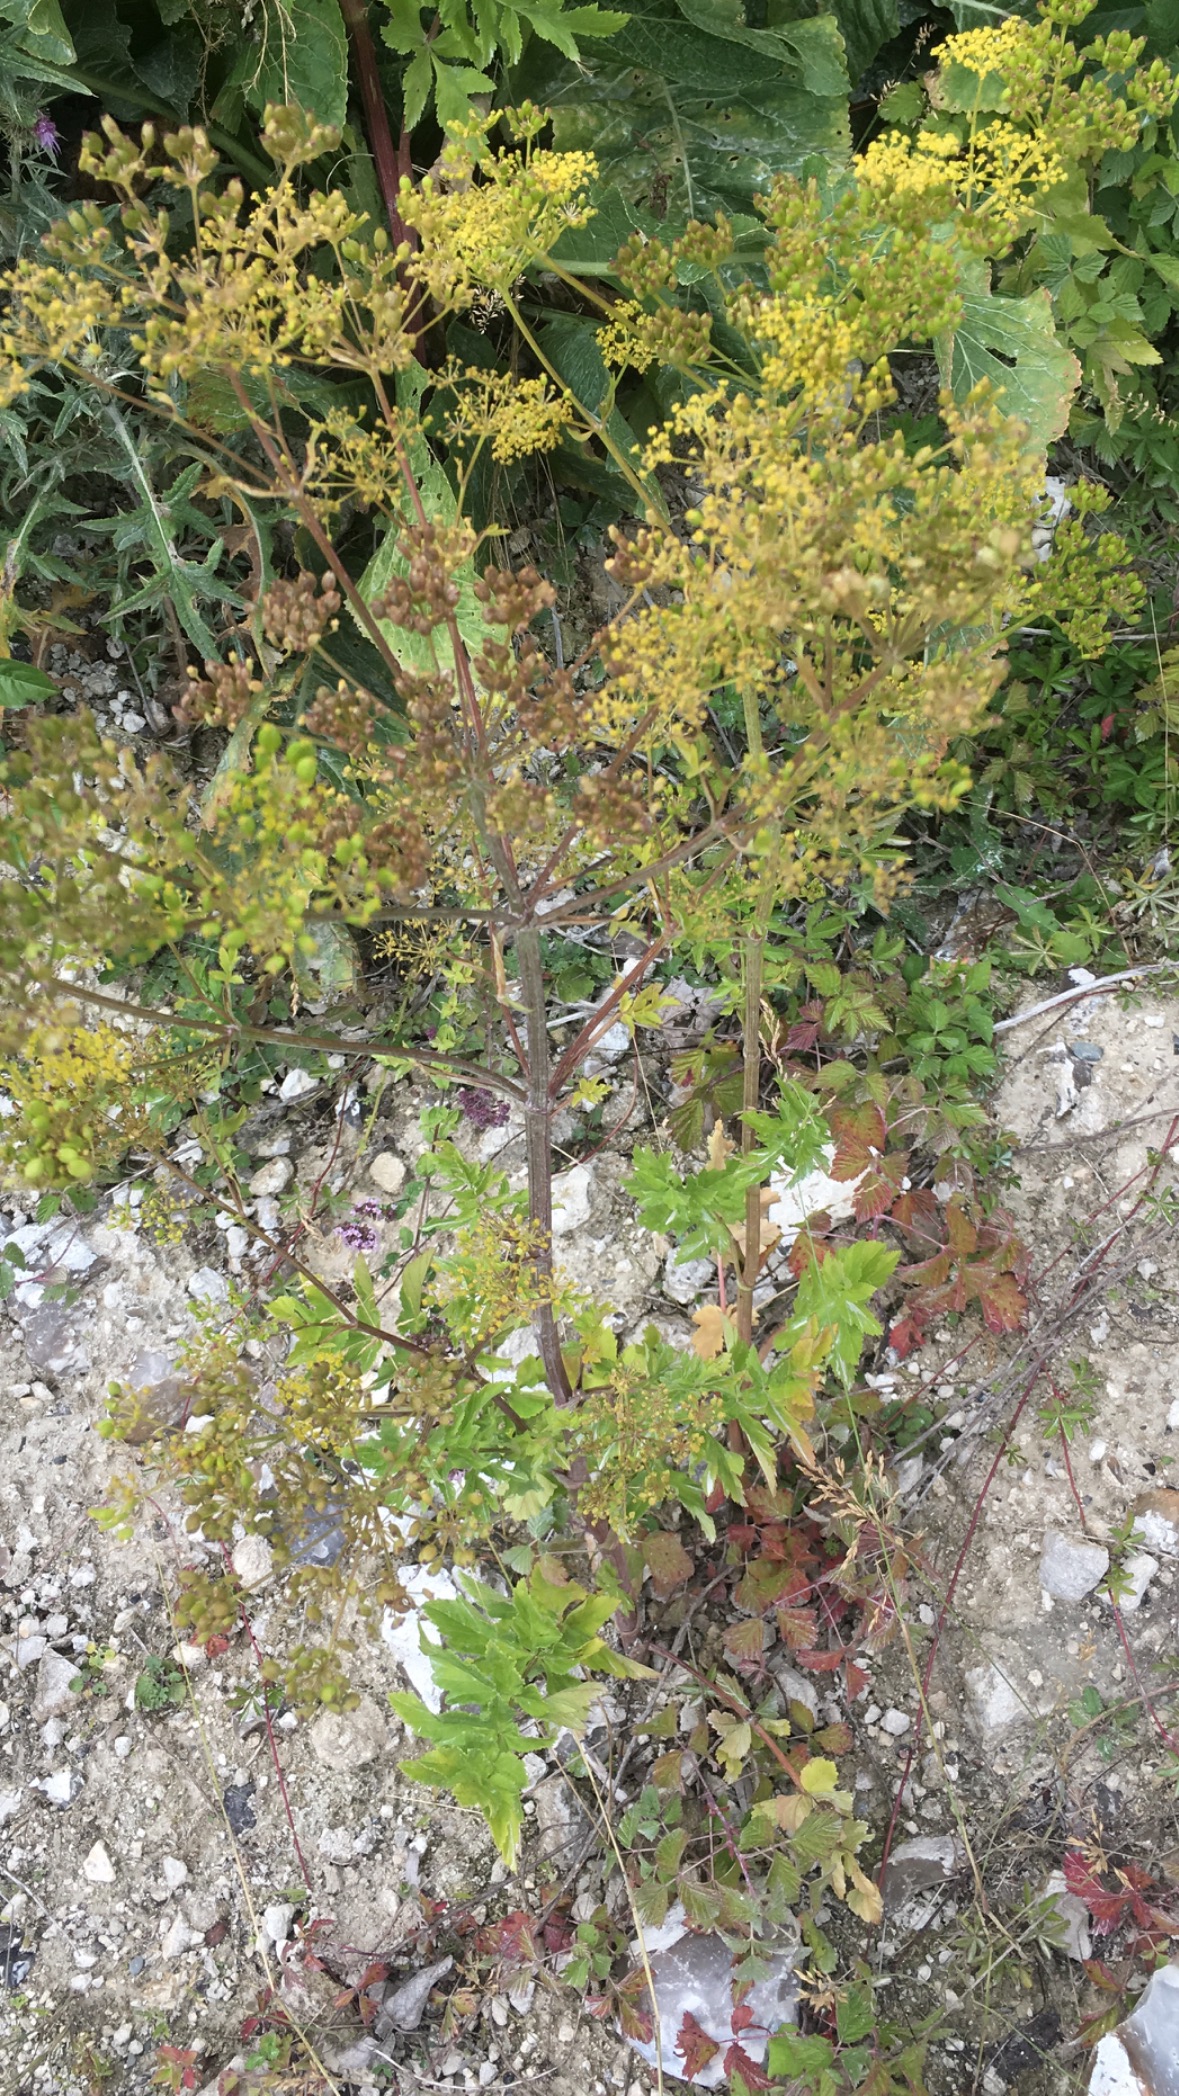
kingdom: Plantae
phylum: Tracheophyta
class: Magnoliopsida
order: Apiales
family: Apiaceae
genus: Pastinaca
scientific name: Pastinaca sativa
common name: Pastinak
